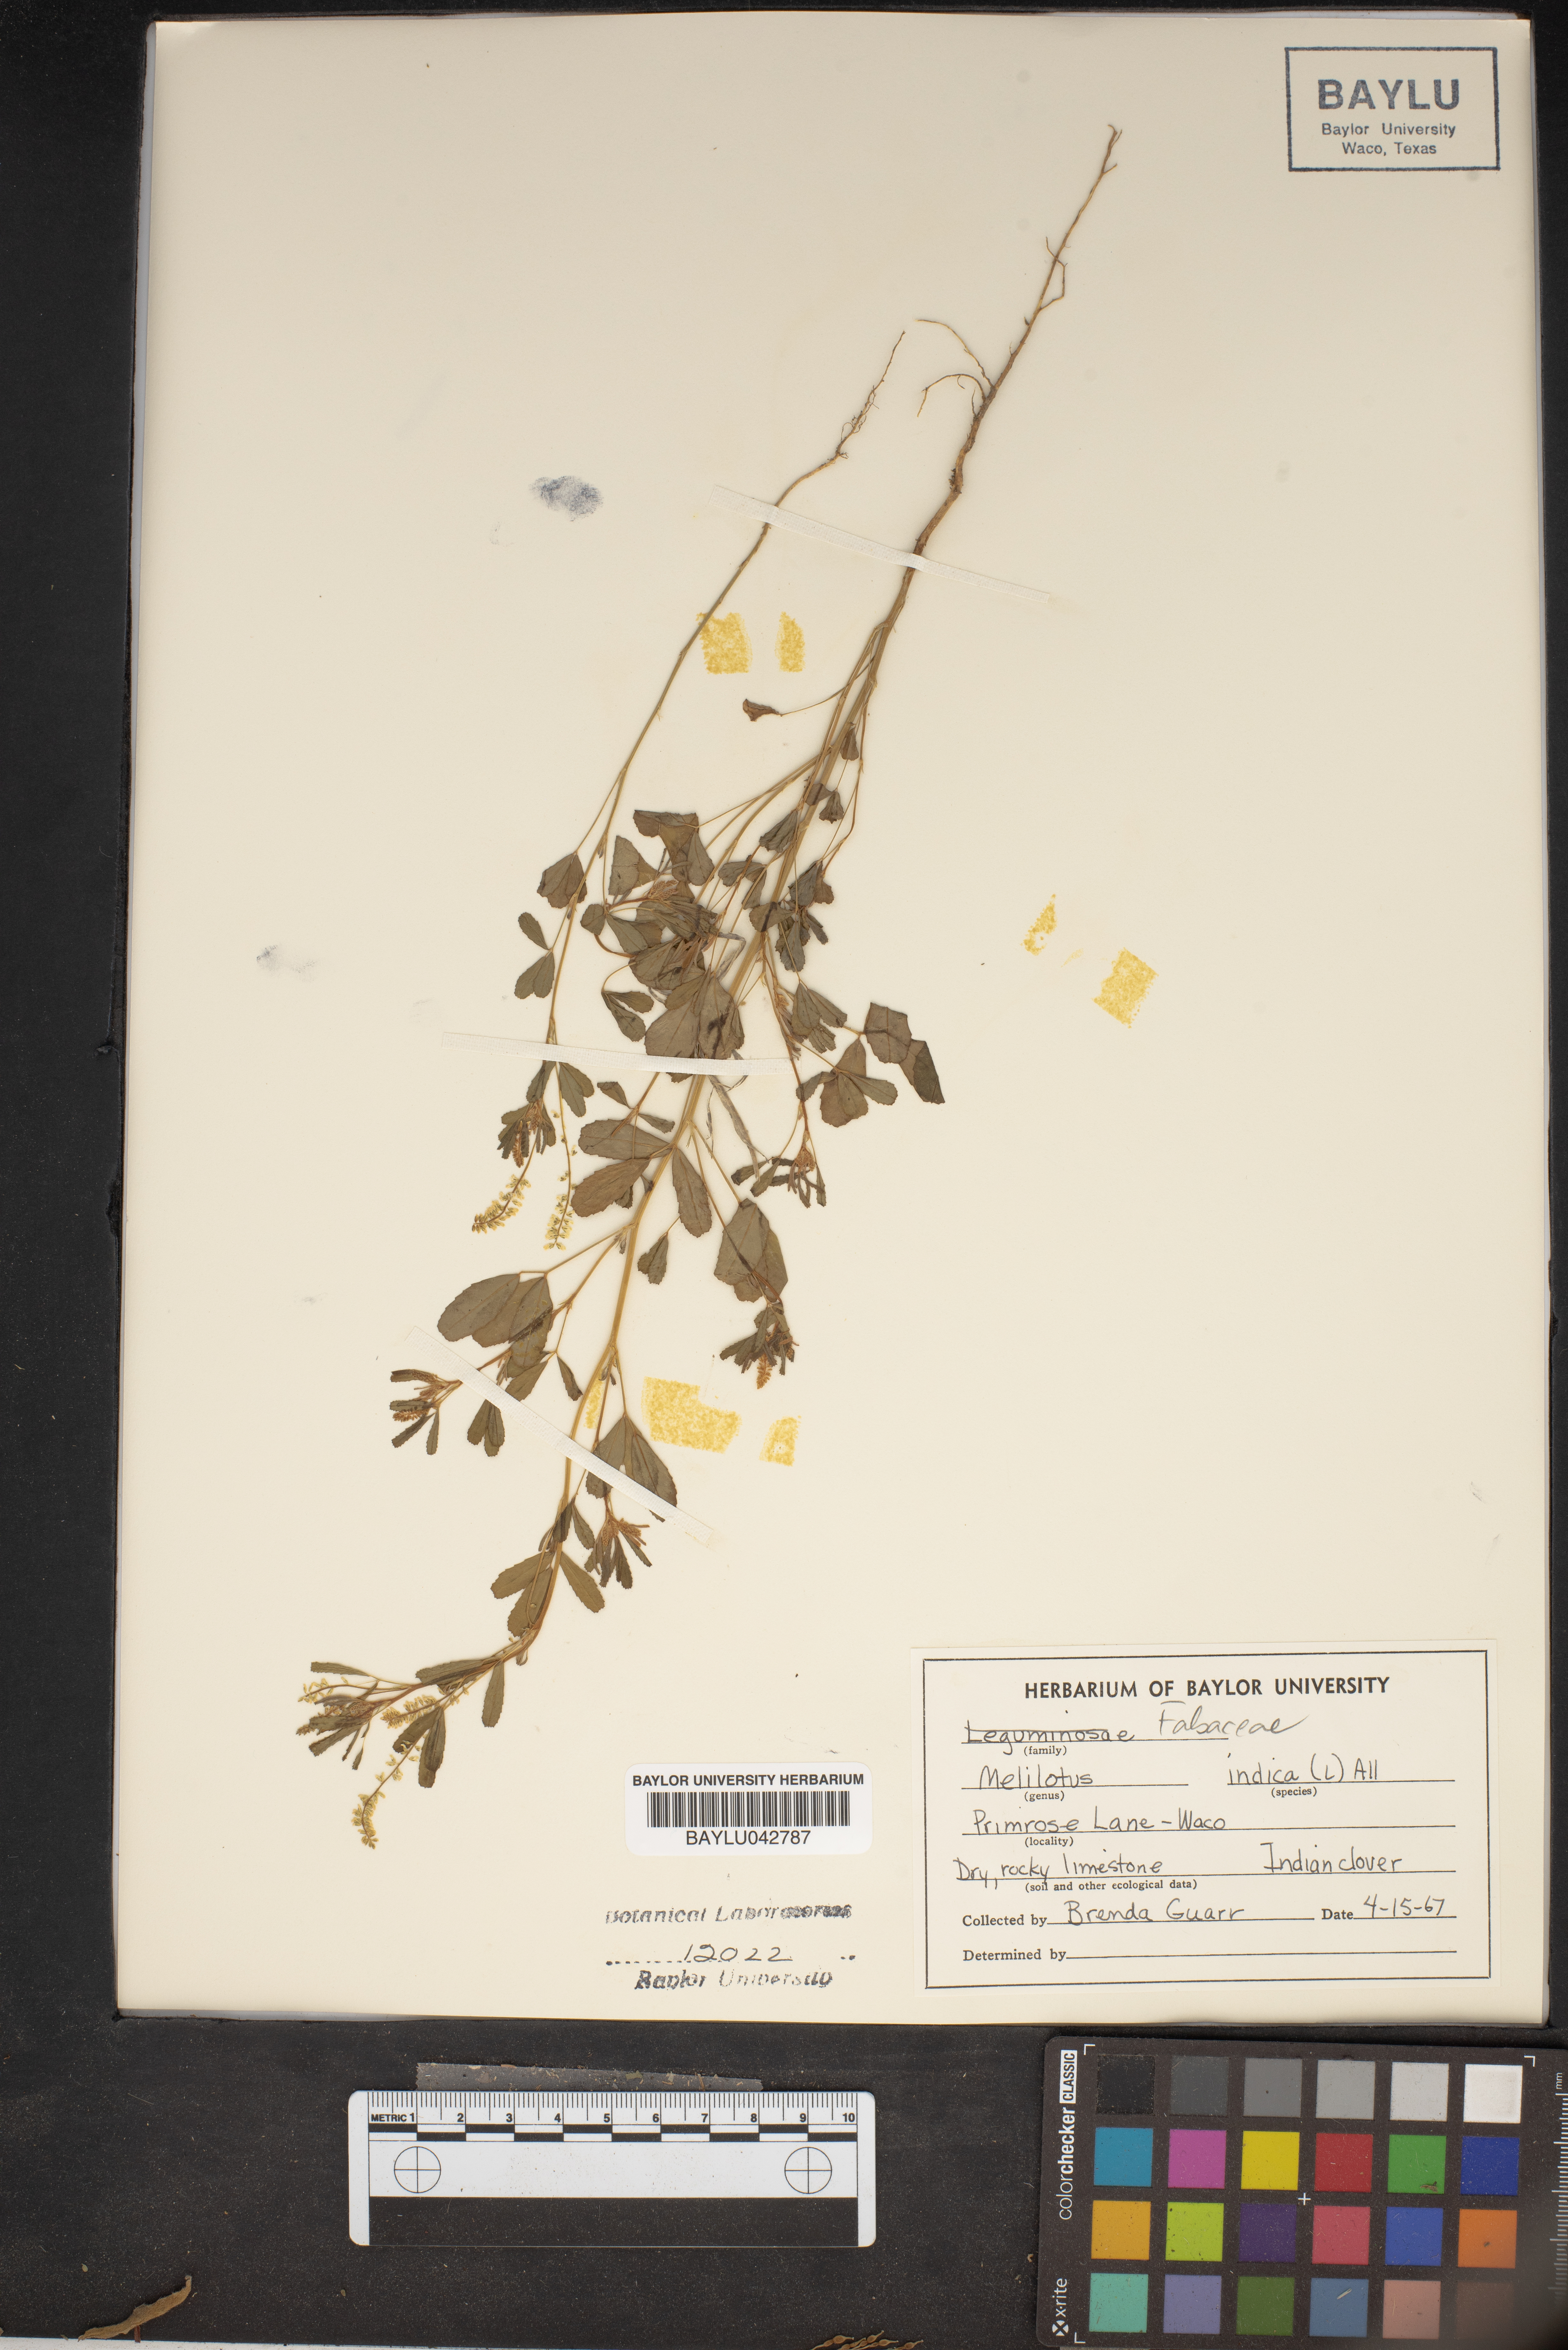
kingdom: Plantae
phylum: Tracheophyta
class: Magnoliopsida
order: Fabales
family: Fabaceae
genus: Melilotus
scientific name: Melilotus indicus
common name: Small melilot
